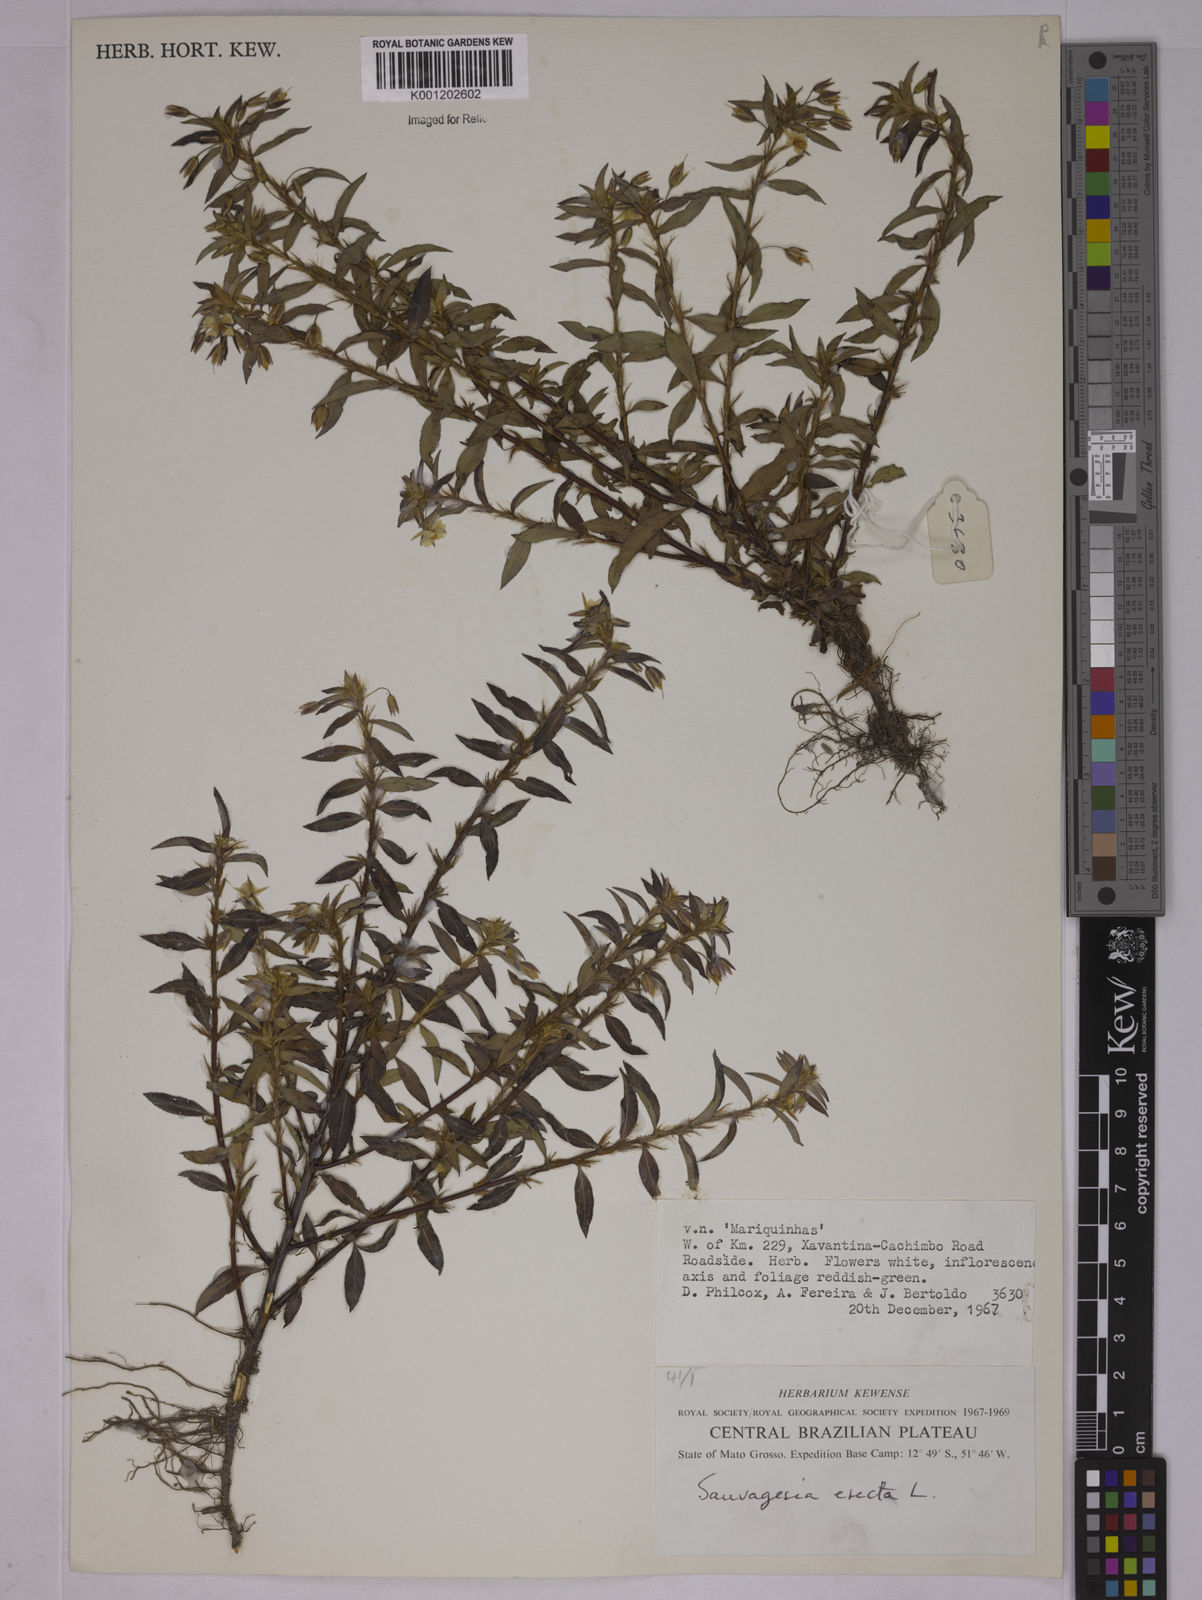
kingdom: Plantae
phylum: Tracheophyta
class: Magnoliopsida
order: Malpighiales
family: Ochnaceae
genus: Sauvagesia
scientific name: Sauvagesia erecta
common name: Creole tea
